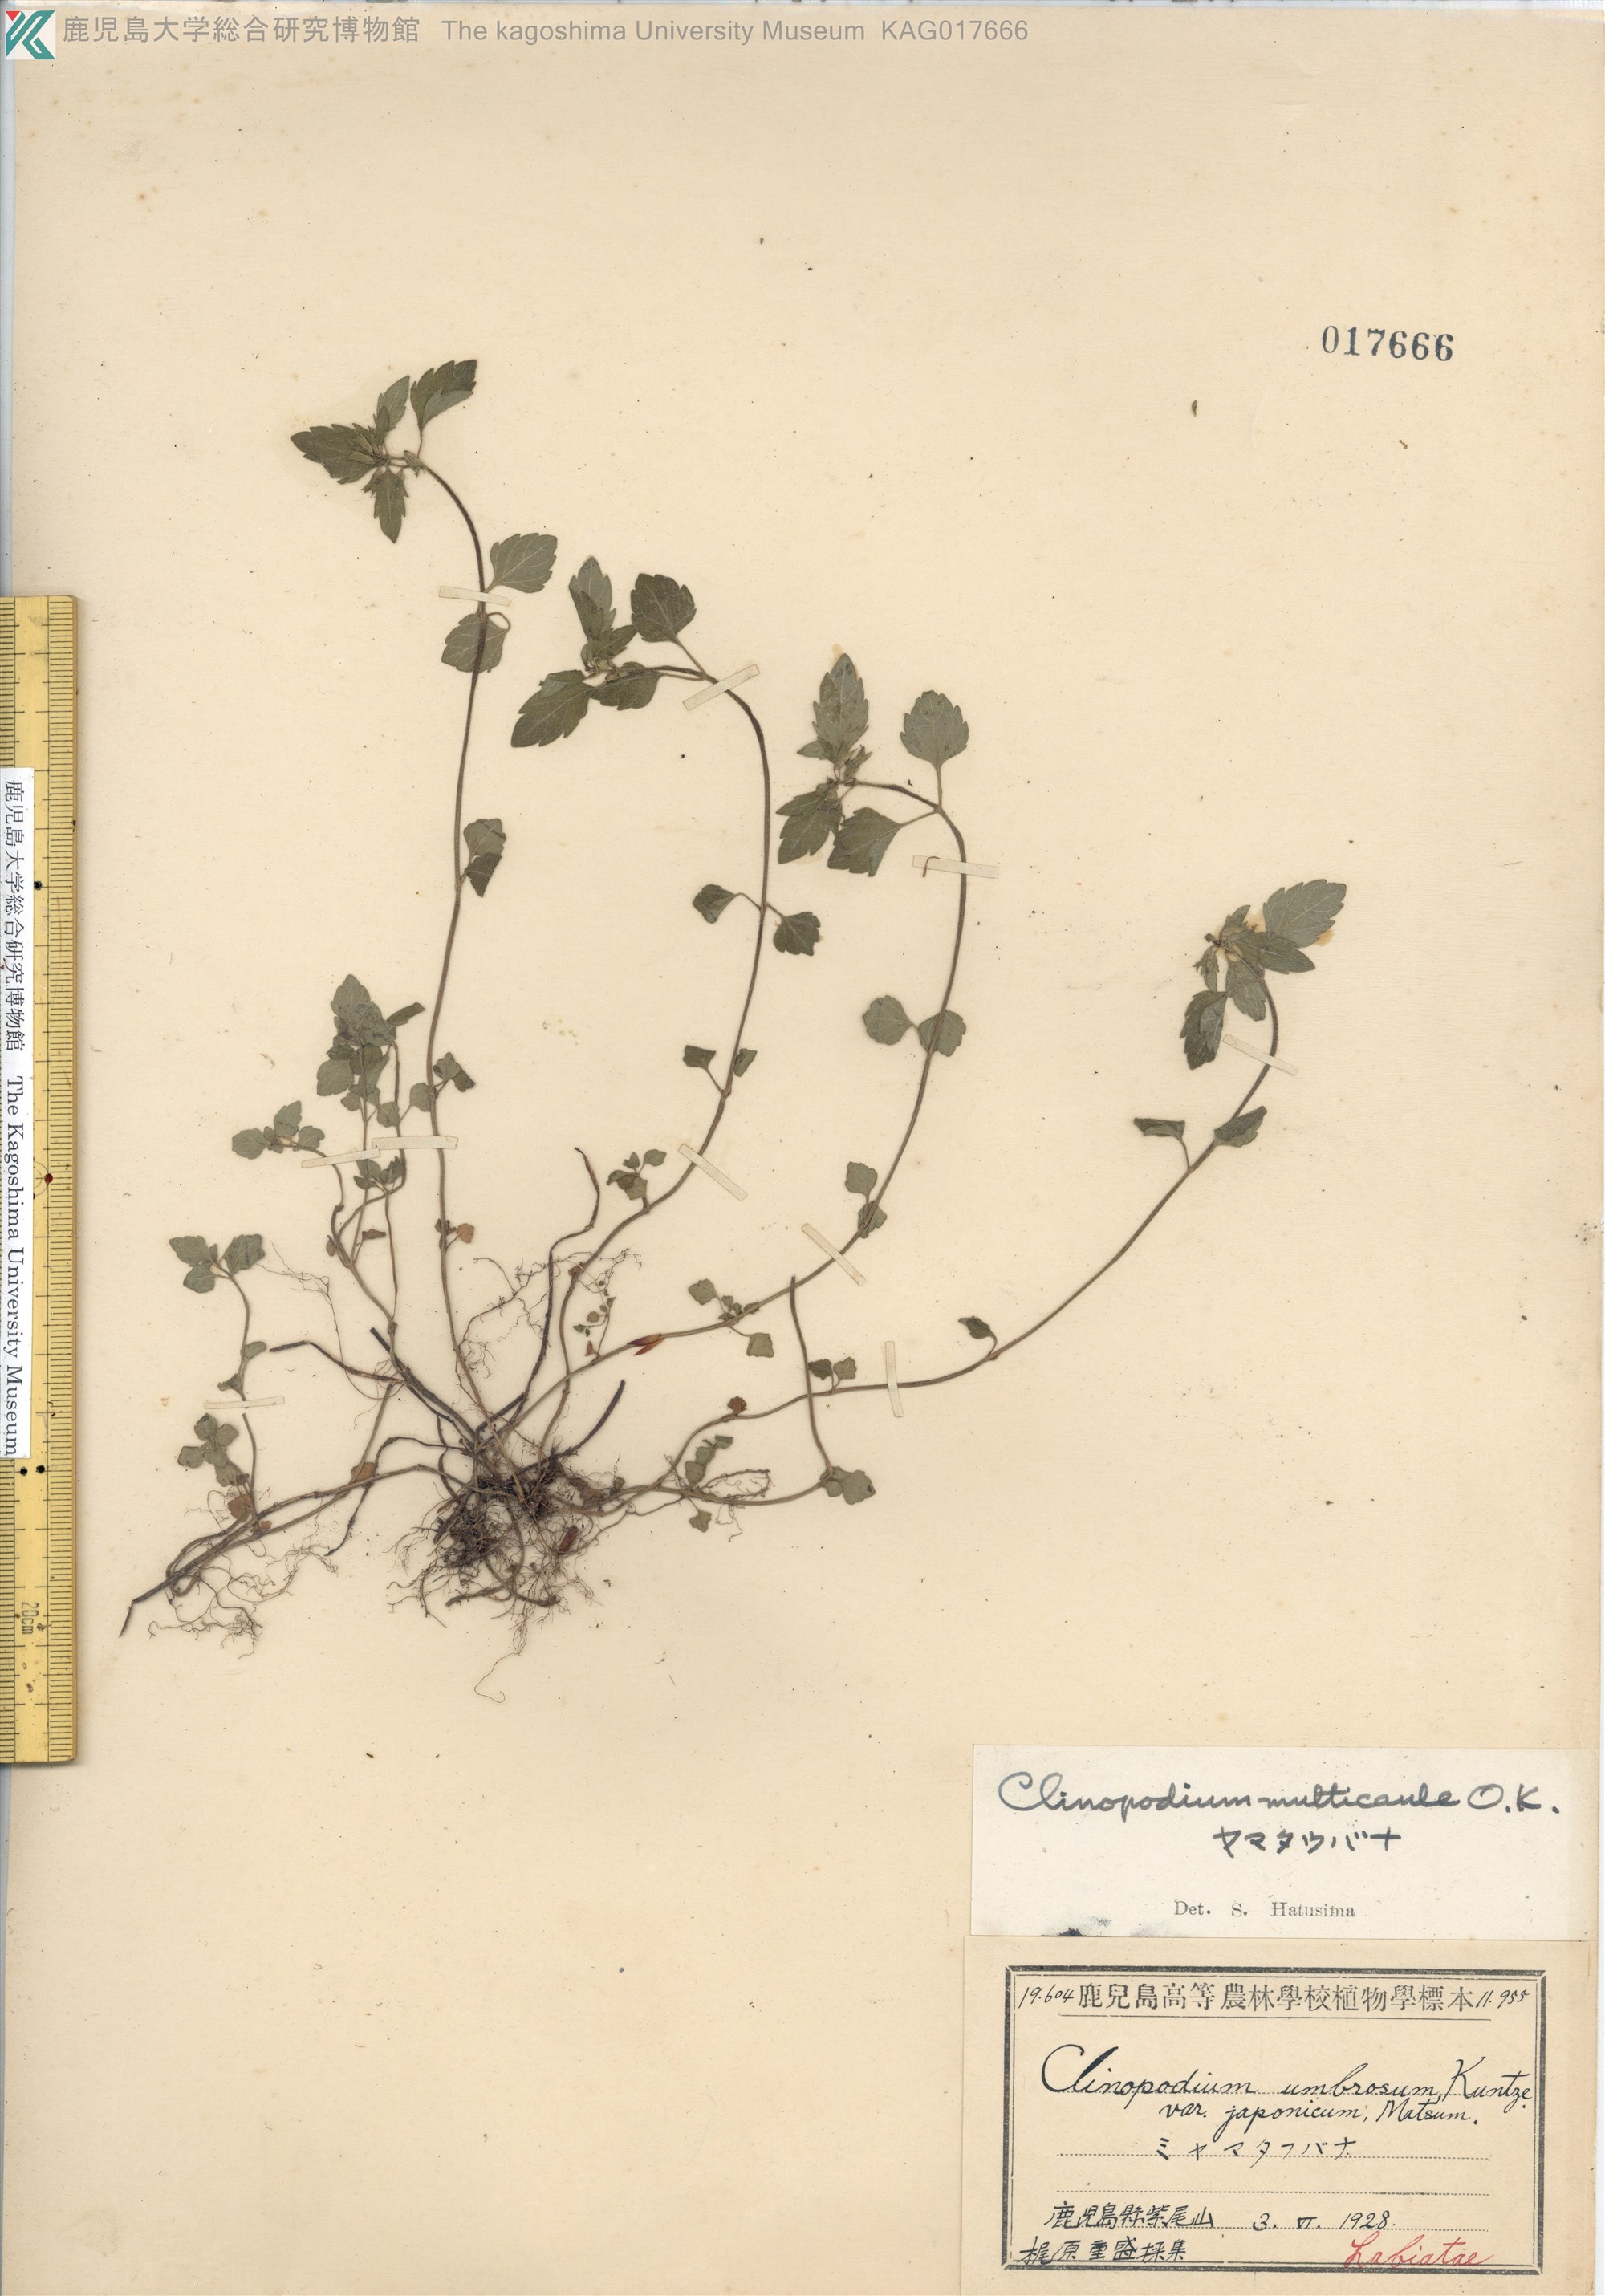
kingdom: Plantae
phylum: Tracheophyta
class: Magnoliopsida
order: Lamiales
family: Lamiaceae
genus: Clinopodium
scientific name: Clinopodium multicaule
